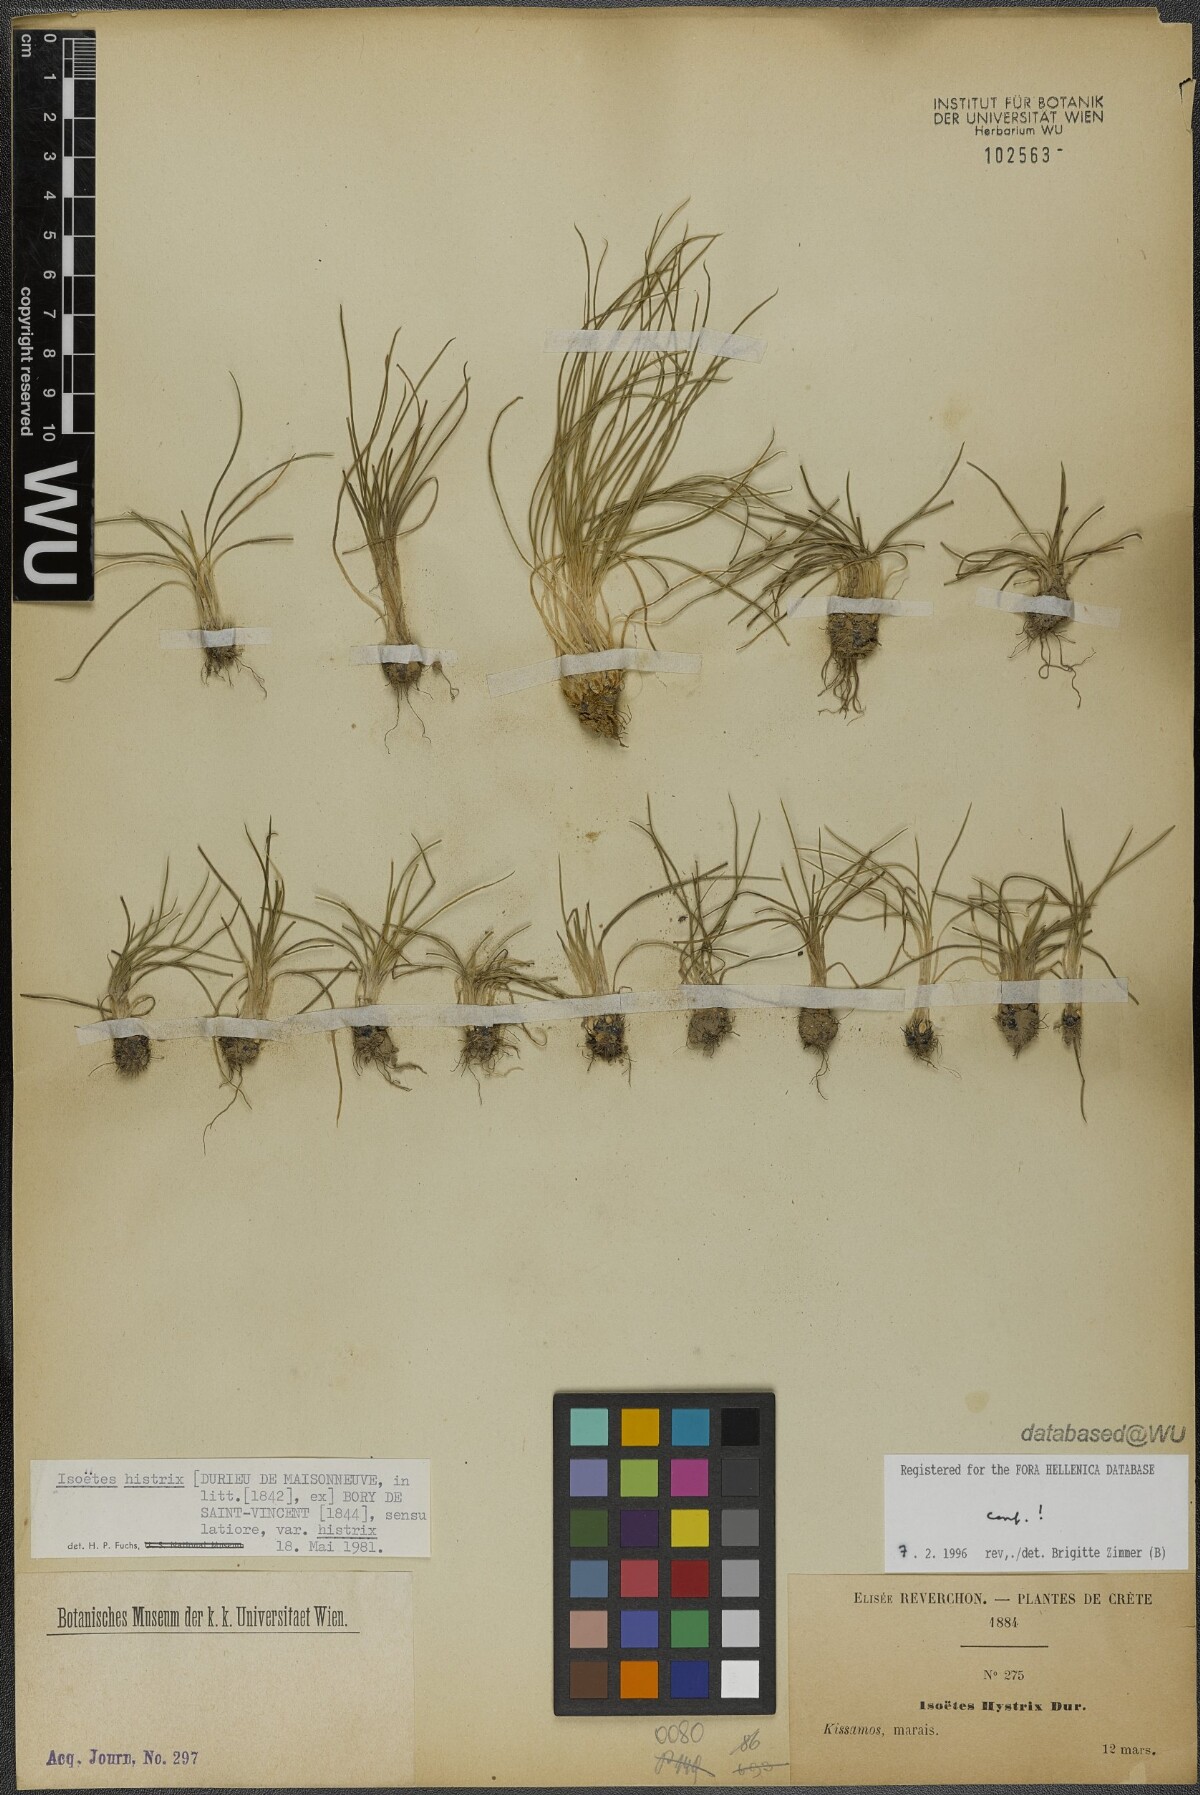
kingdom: Plantae
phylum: Tracheophyta
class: Lycopodiopsida
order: Isoetales
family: Isoetaceae
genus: Isoetes
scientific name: Isoetes histrix
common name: Land quillwort
